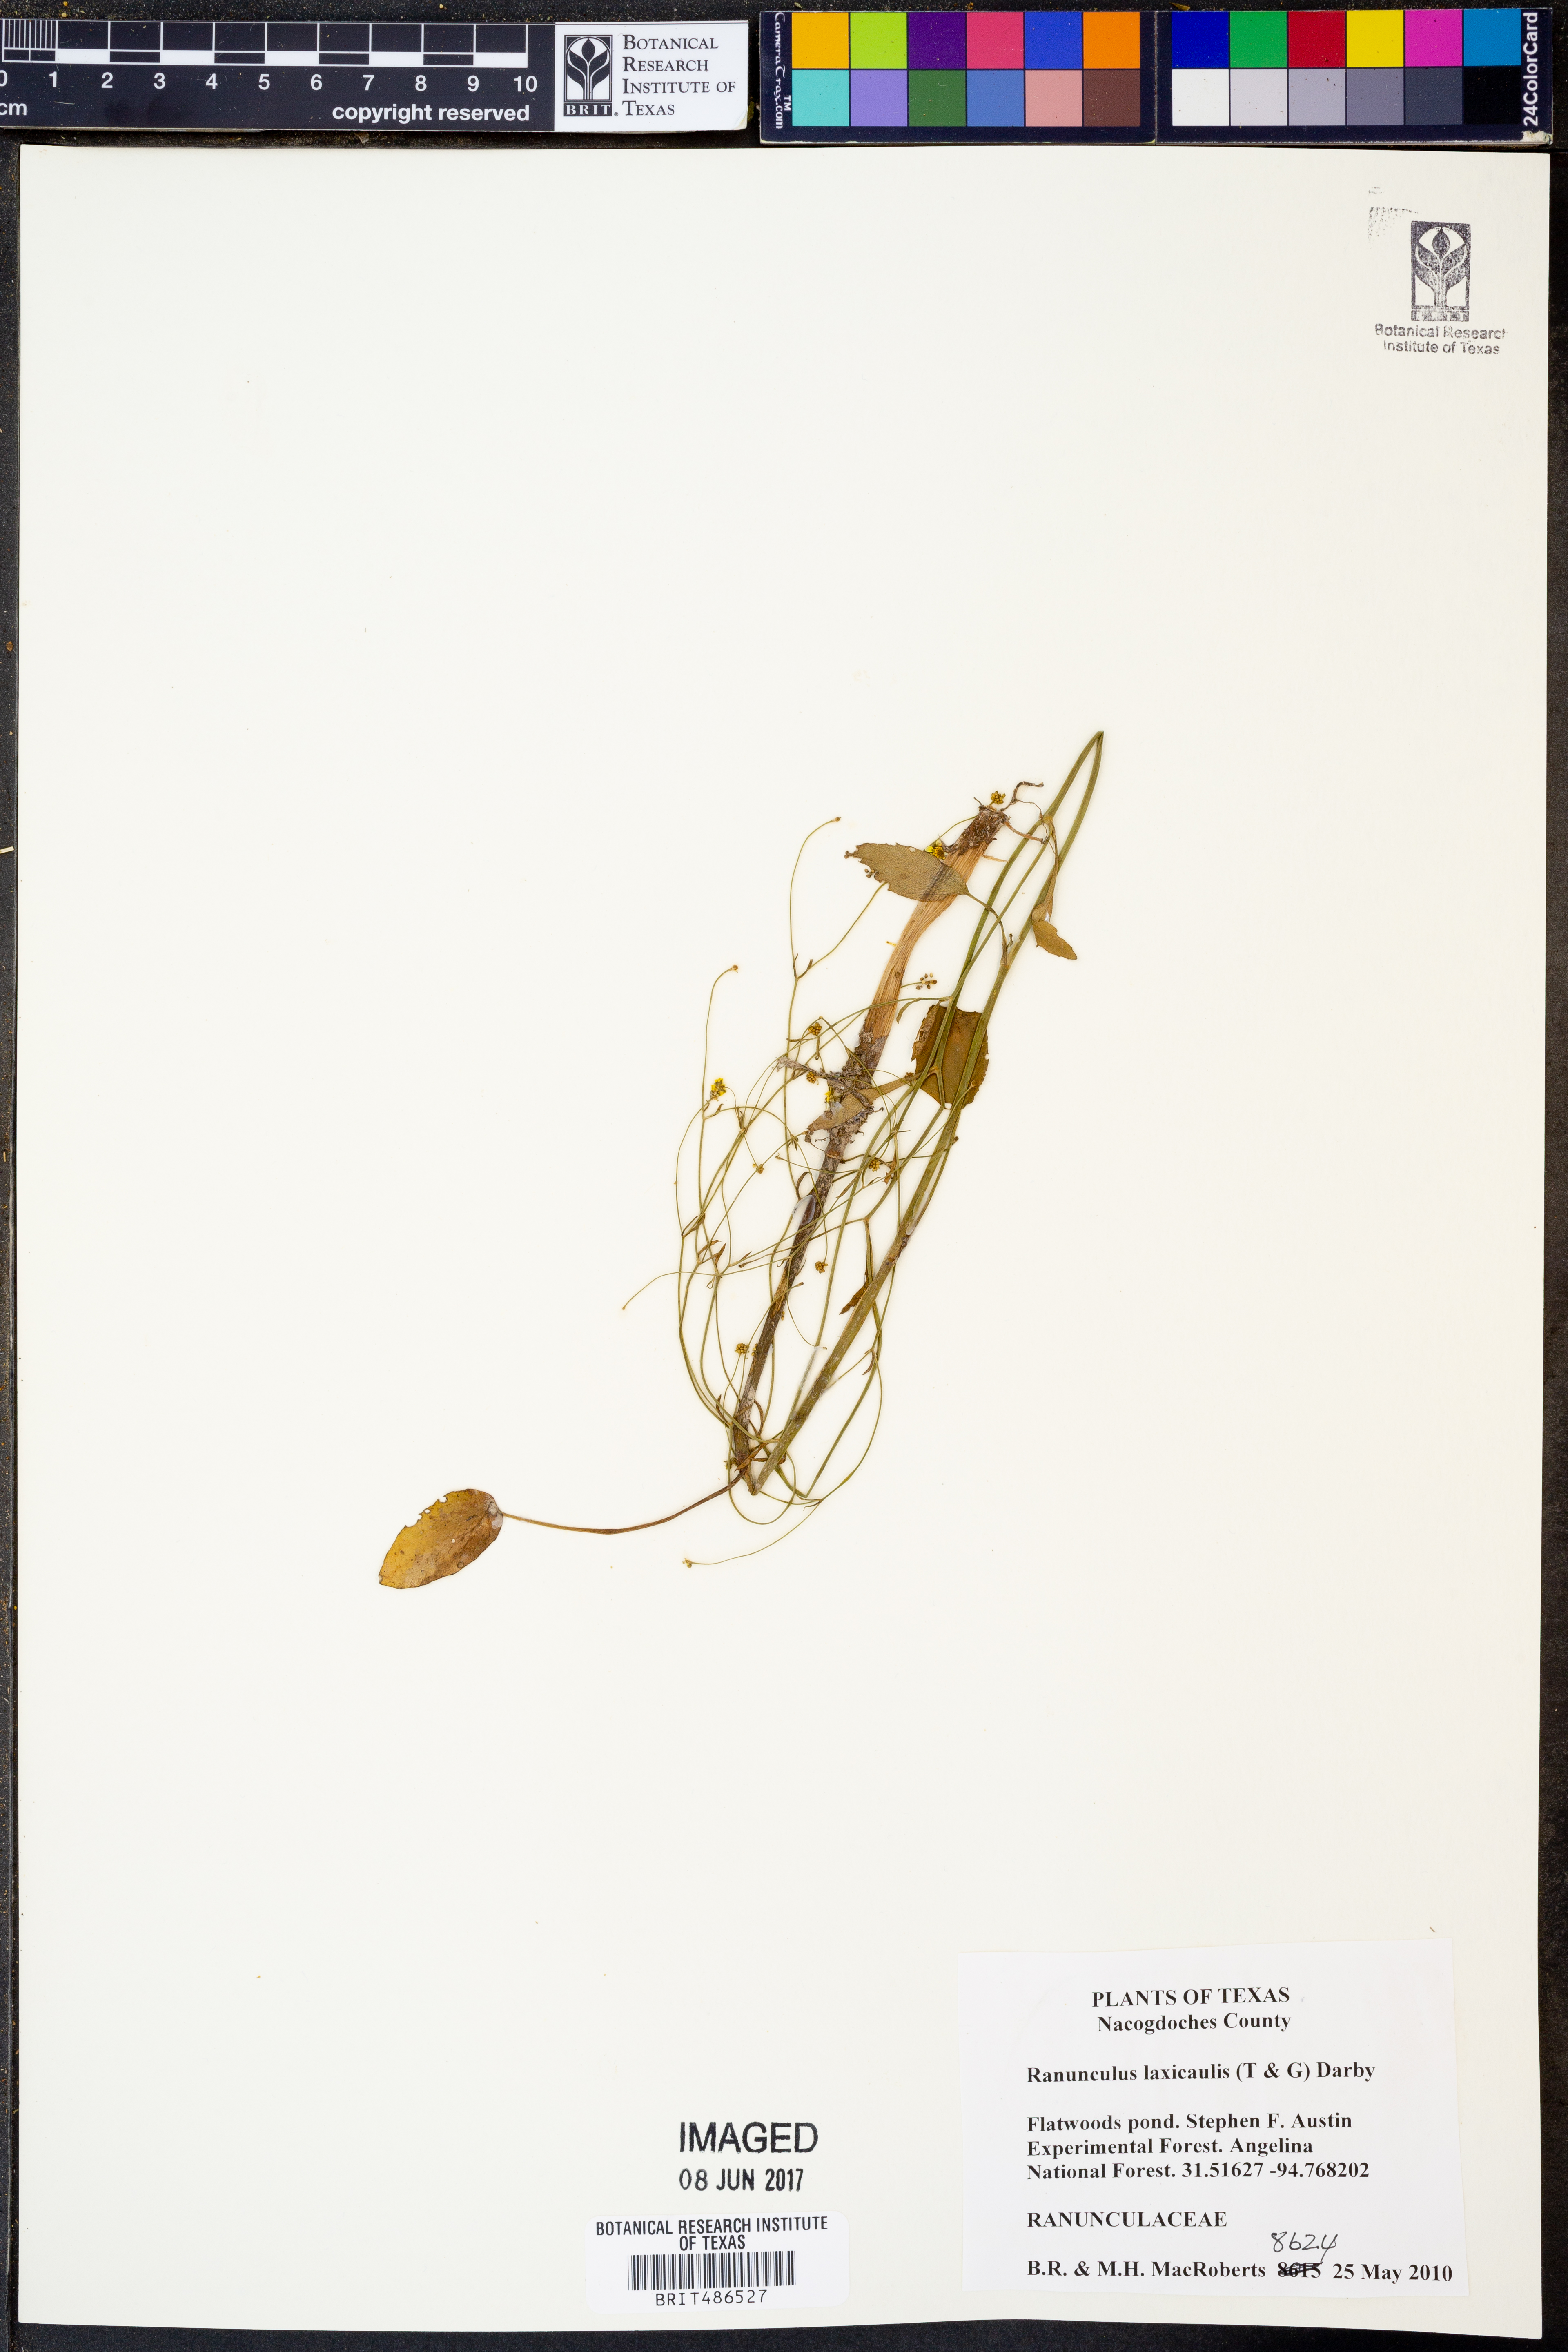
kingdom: Plantae
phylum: Tracheophyta
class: Magnoliopsida
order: Ranunculales
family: Ranunculaceae
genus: Ranunculus
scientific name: Ranunculus laxicaulis
